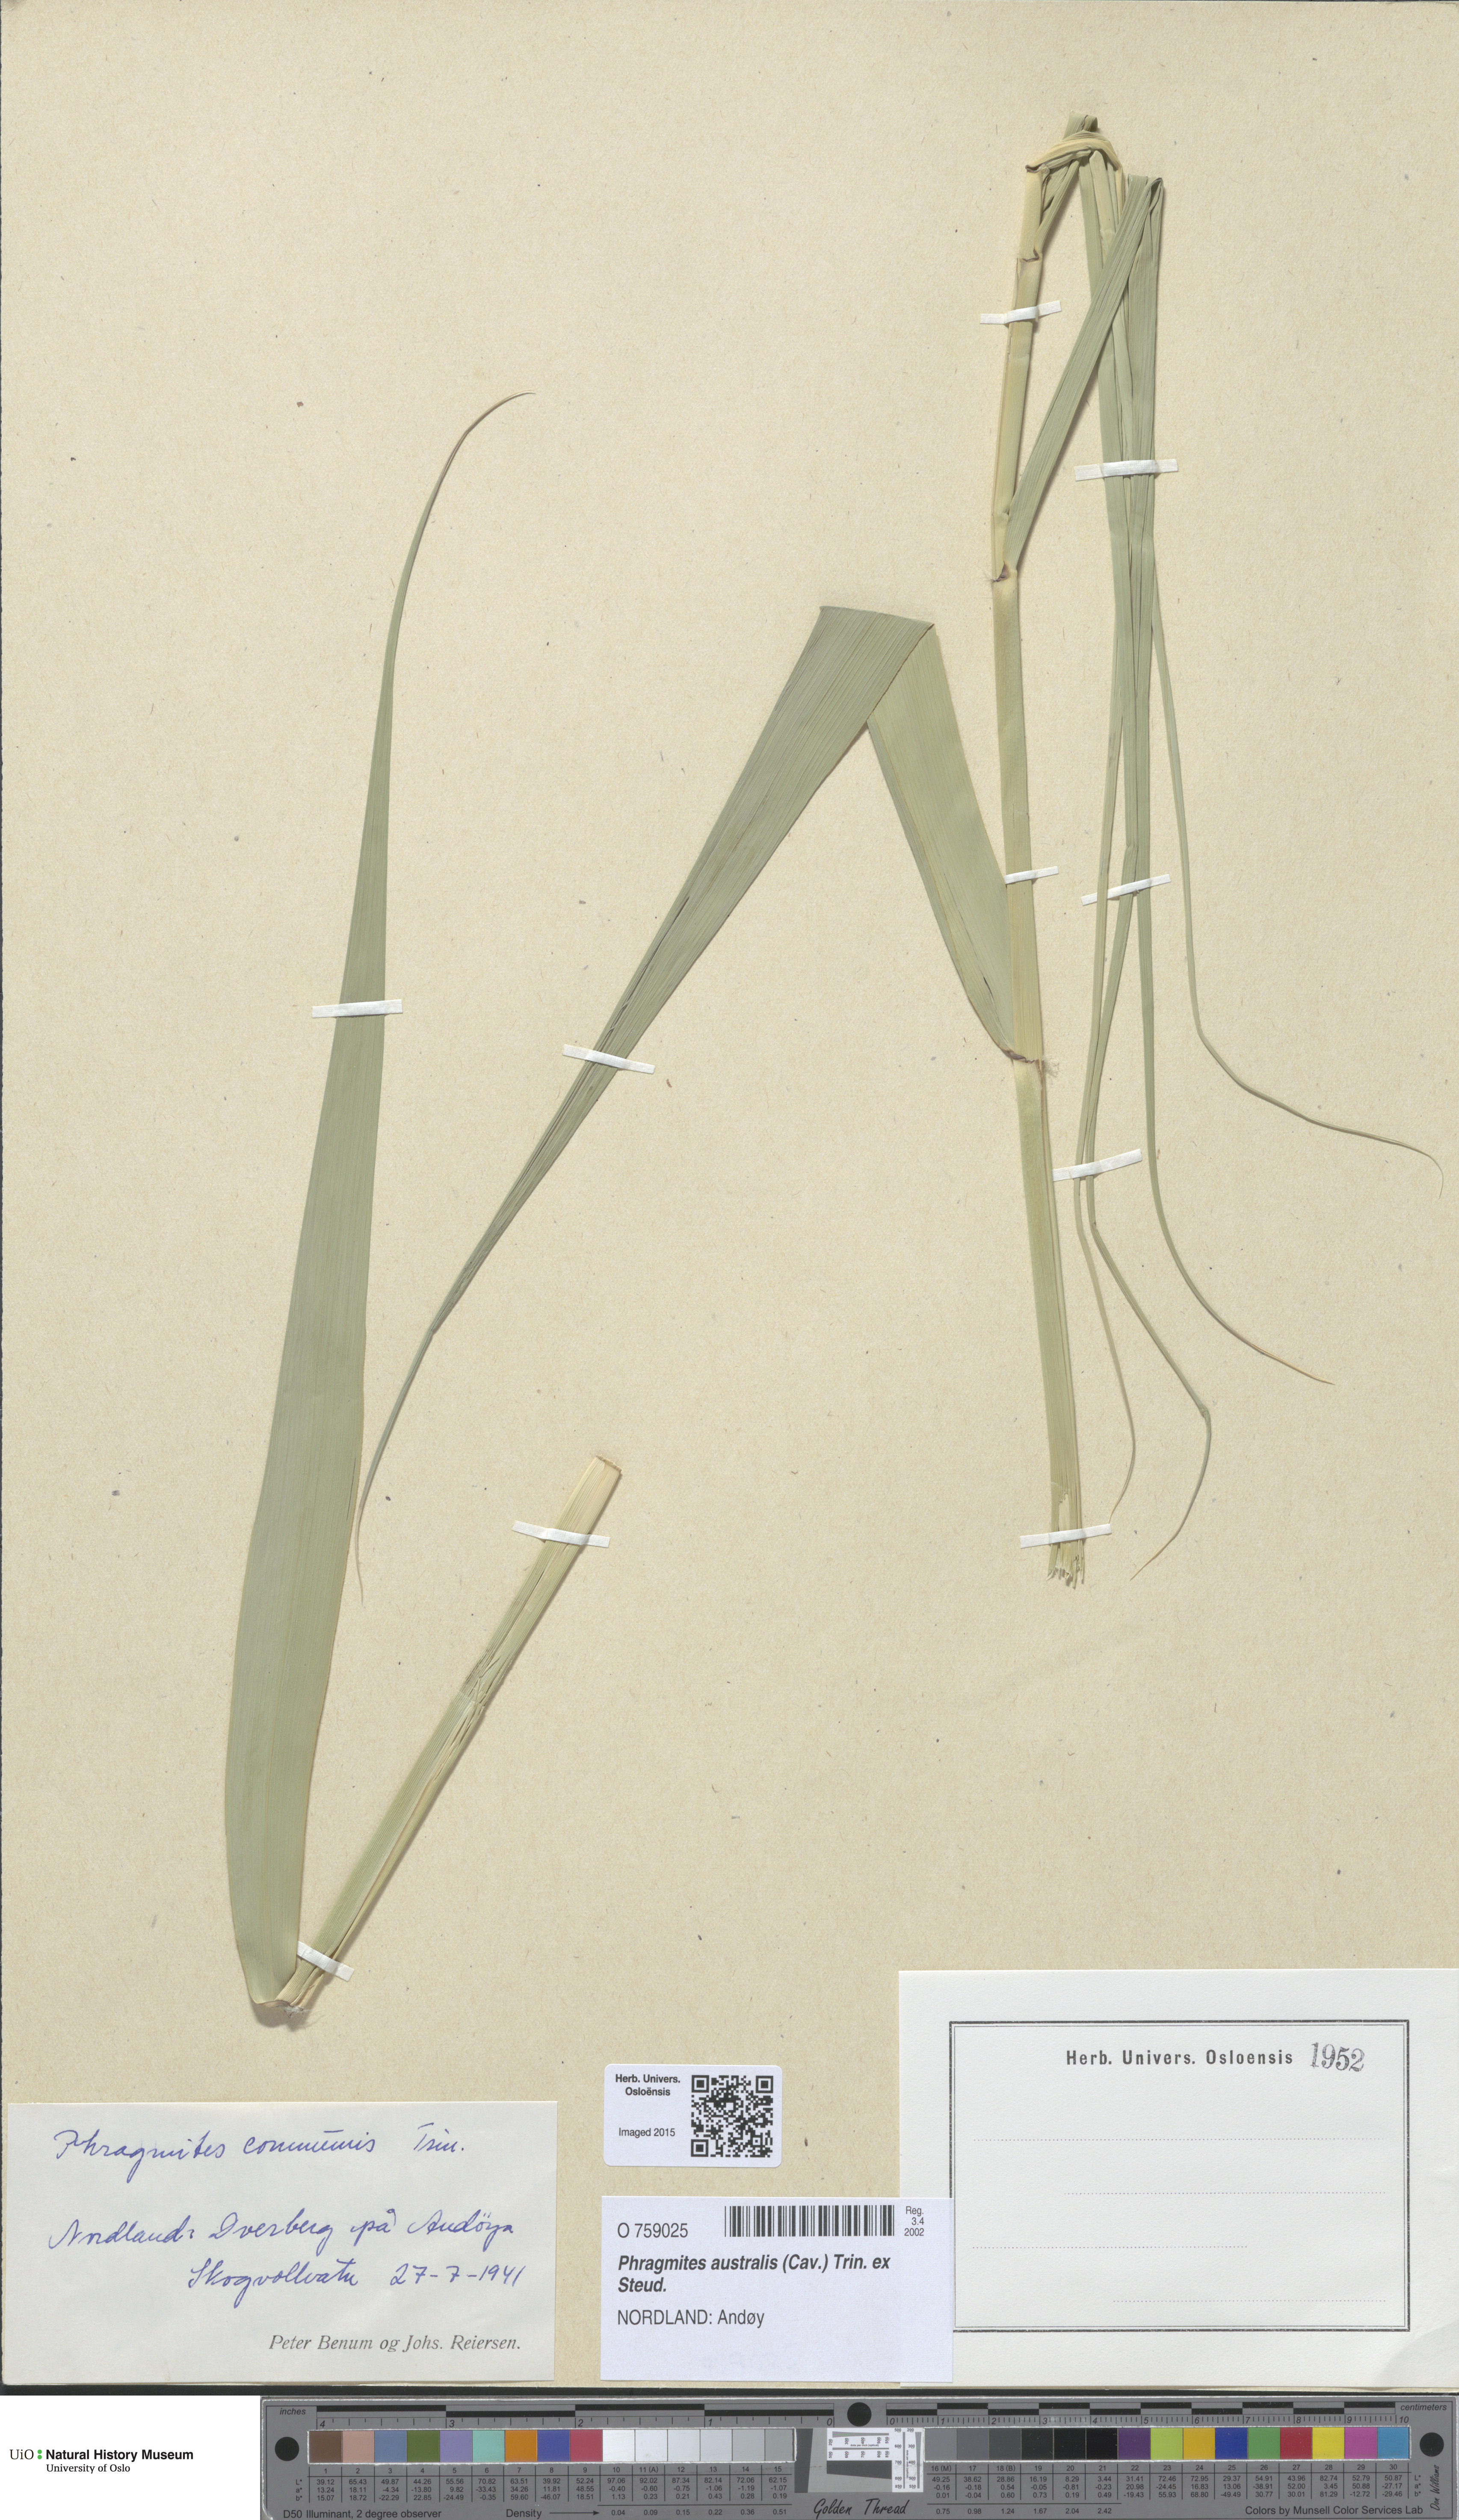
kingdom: Plantae
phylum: Tracheophyta
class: Liliopsida
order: Poales
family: Poaceae
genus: Phragmites
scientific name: Phragmites australis
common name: Common reed
